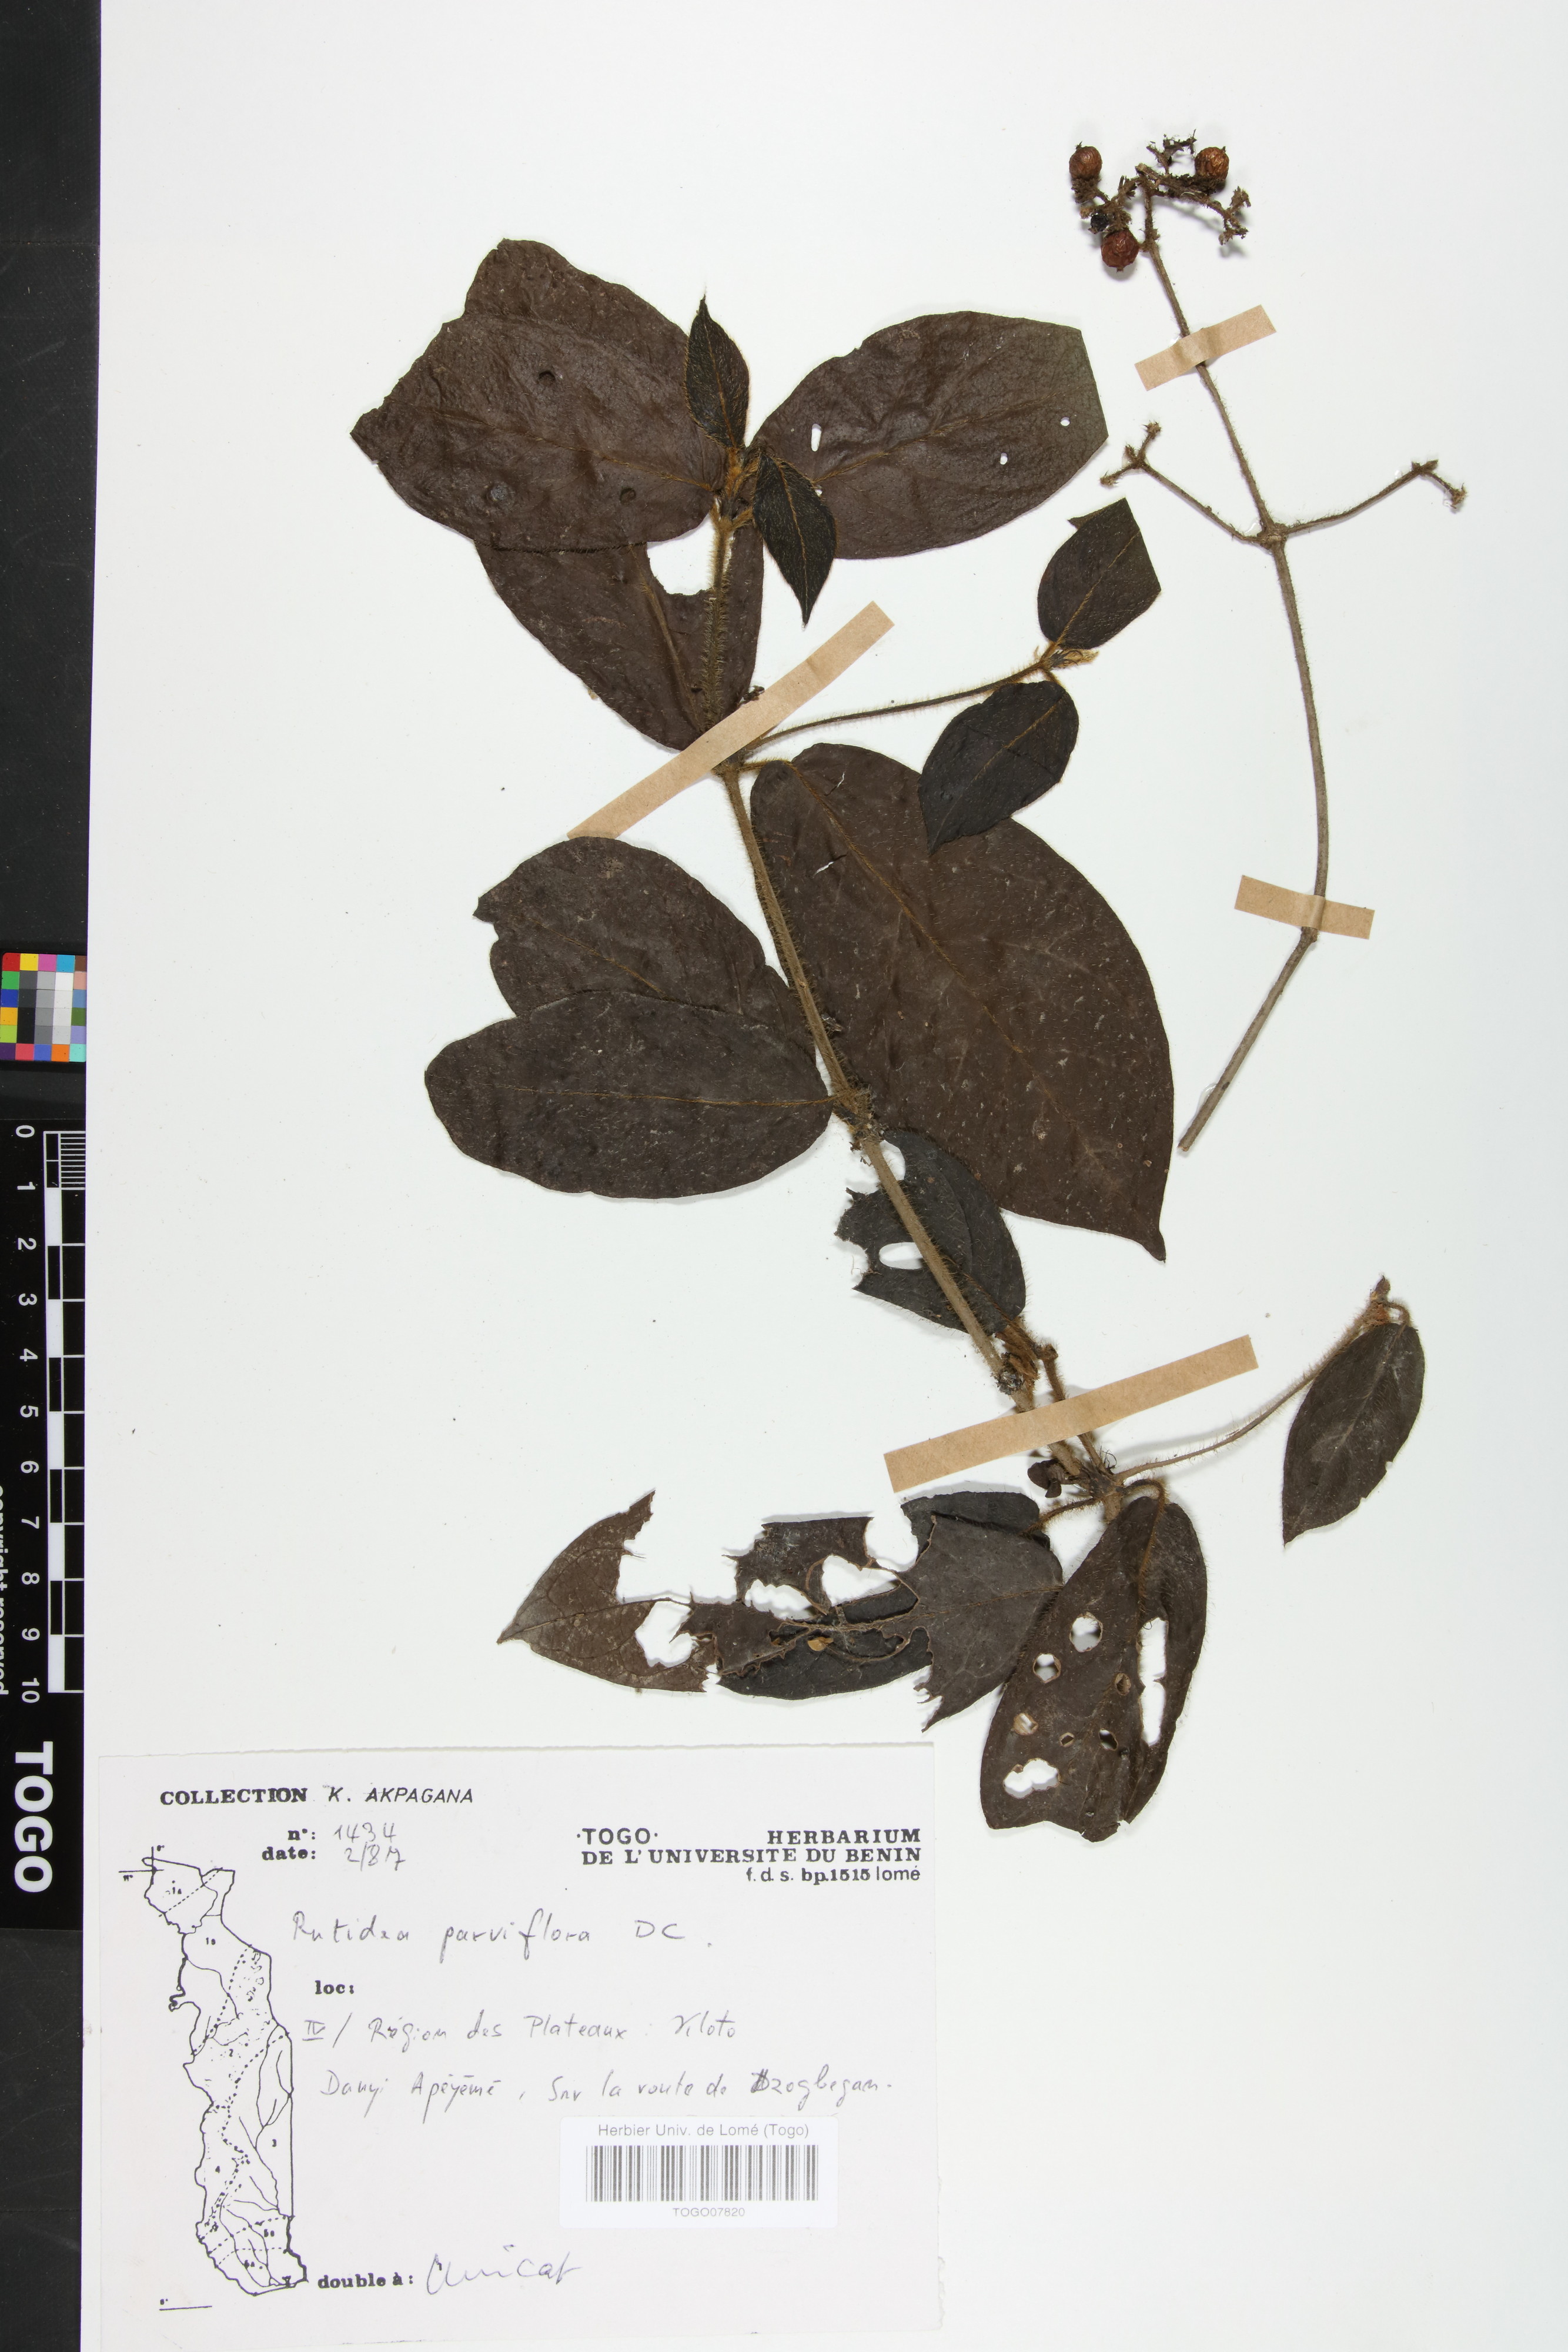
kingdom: Plantae
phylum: Tracheophyta
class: Magnoliopsida
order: Gentianales
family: Rubiaceae
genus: Rutidea
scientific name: Rutidea parviflora
